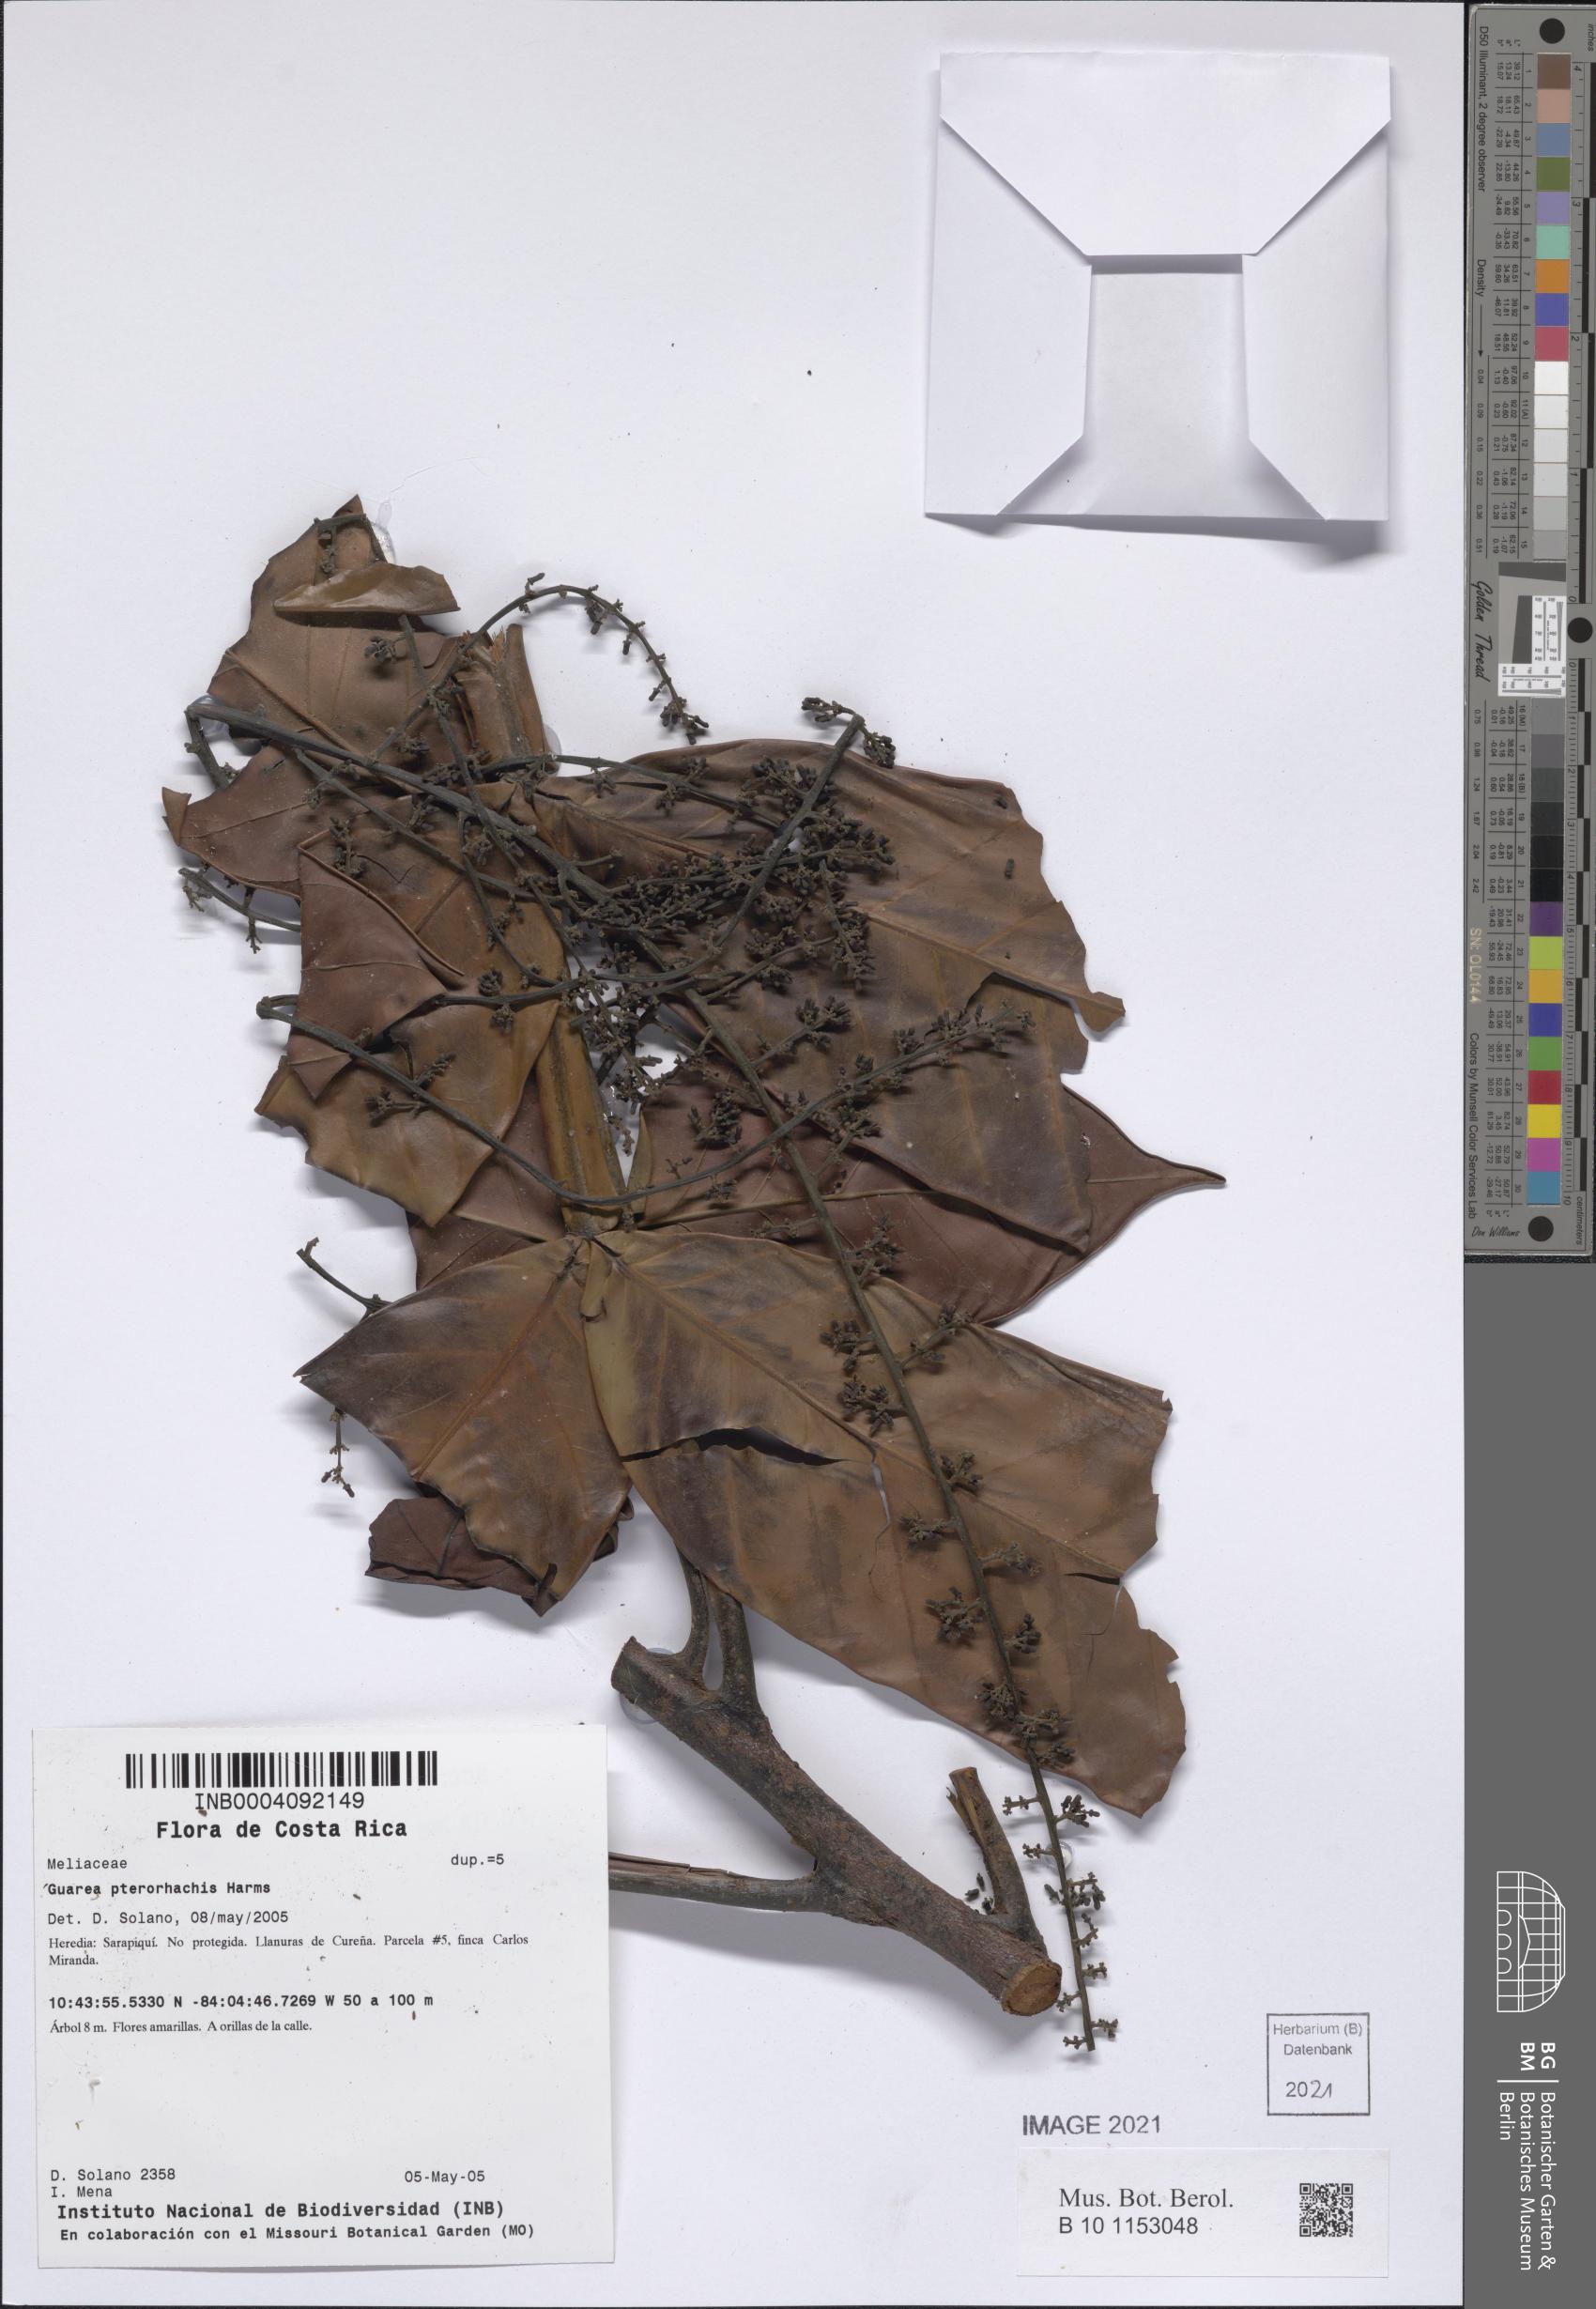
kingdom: Plantae
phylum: Tracheophyta
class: Magnoliopsida
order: Sapindales
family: Meliaceae
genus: Guarea
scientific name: Guarea pterorhachis
